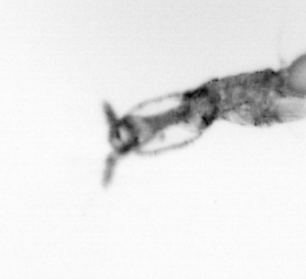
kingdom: Animalia
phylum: Arthropoda
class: Copepoda
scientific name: Copepoda
